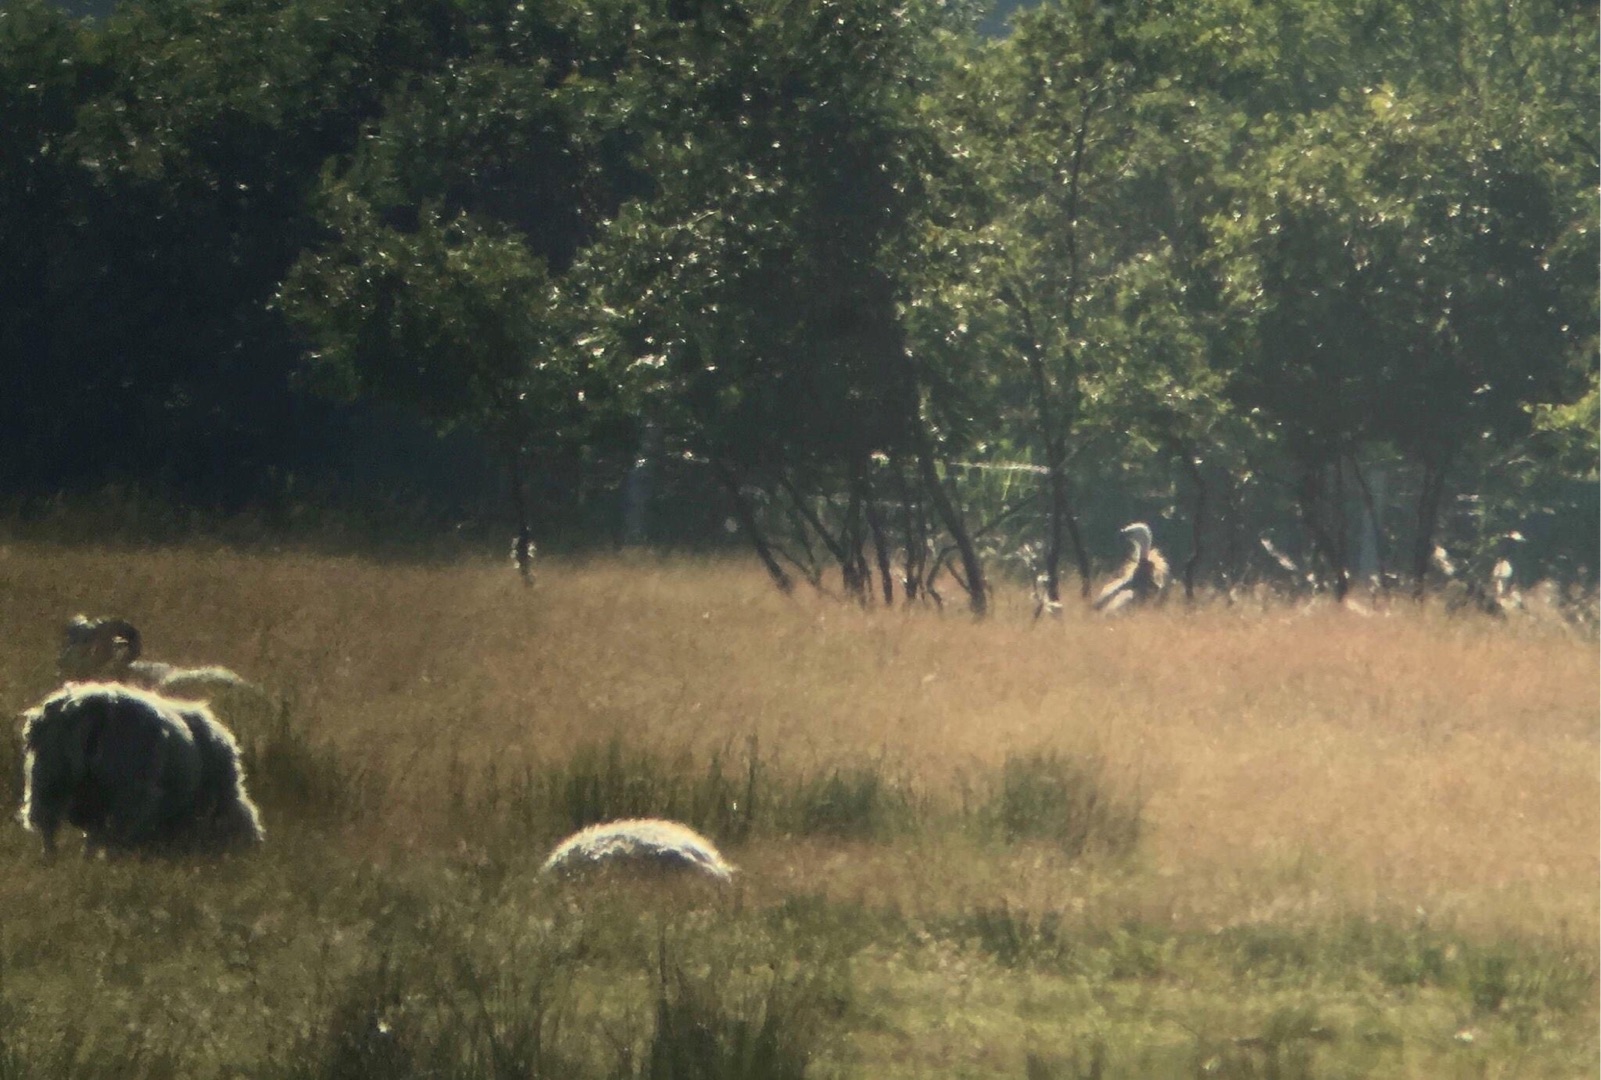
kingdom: Animalia
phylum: Chordata
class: Aves
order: Accipitriformes
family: Accipitridae
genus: Gyps
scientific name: Gyps fulvus
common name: Gåsegrib
